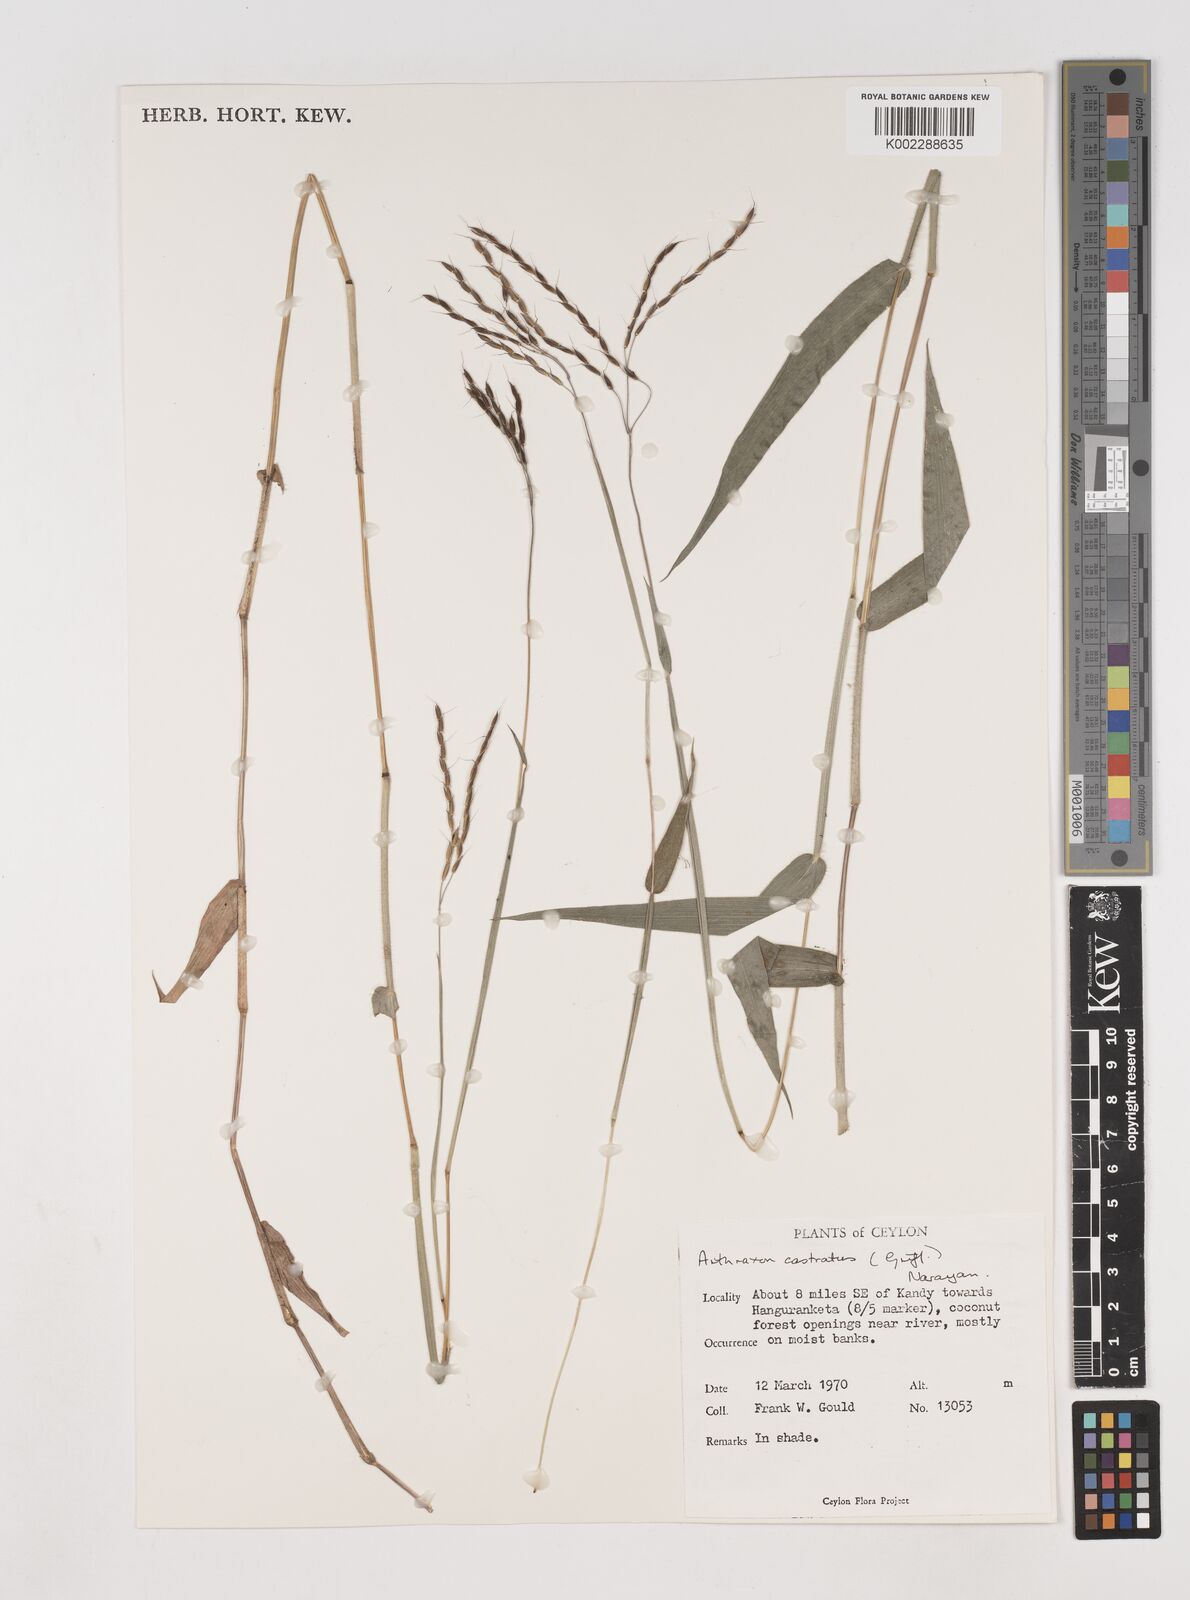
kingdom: Plantae
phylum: Tracheophyta
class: Liliopsida
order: Poales
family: Poaceae
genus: Arthraxon
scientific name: Arthraxon castratus
